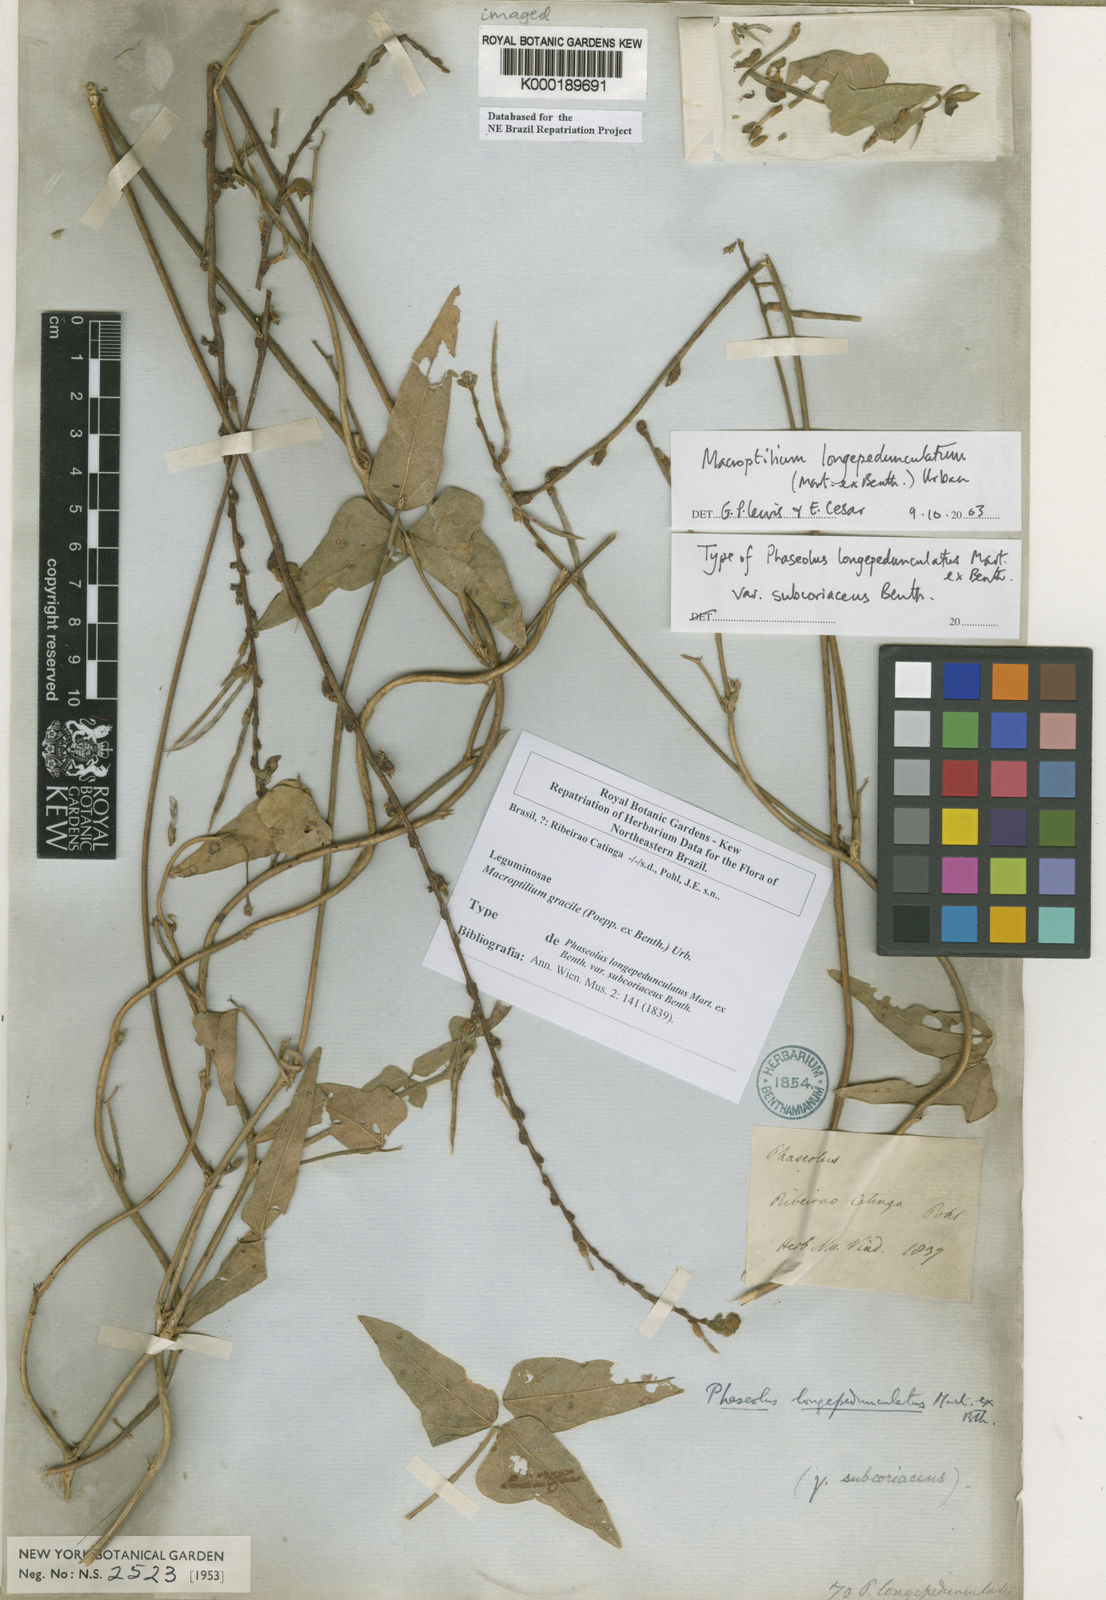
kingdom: Plantae
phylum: Tracheophyta
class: Magnoliopsida
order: Fabales
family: Fabaceae
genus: Macroptilium
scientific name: Macroptilium gracile
